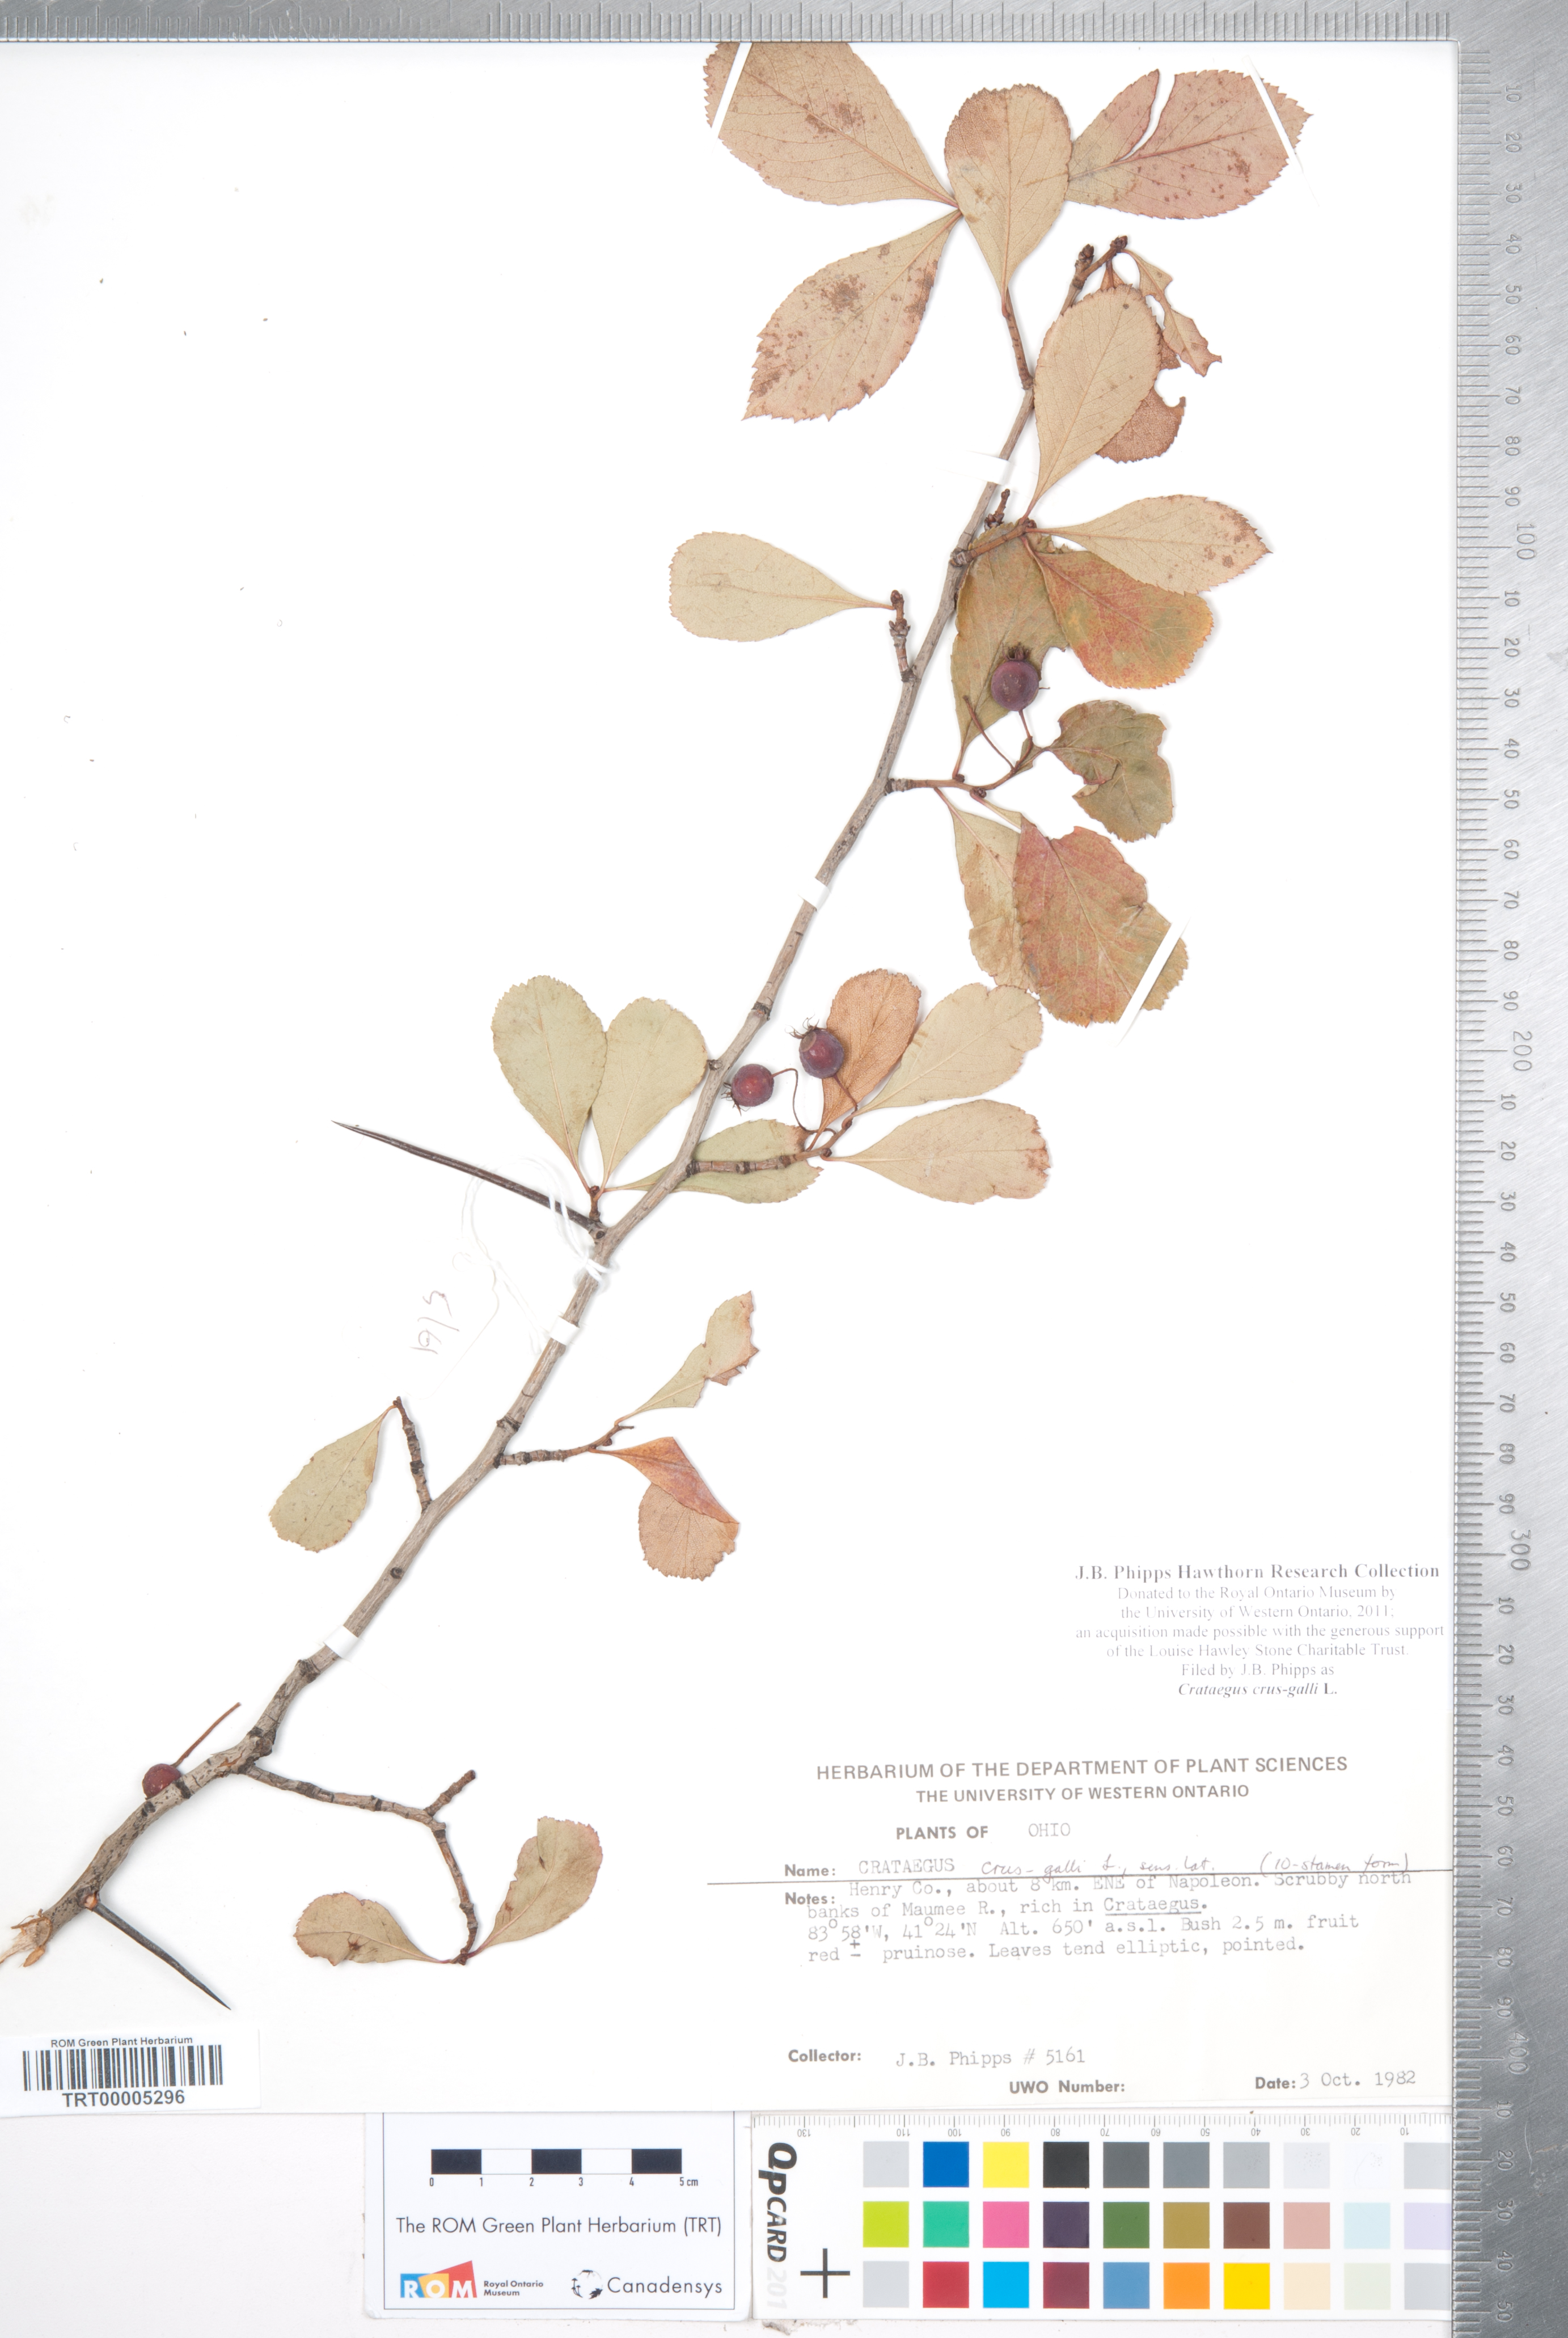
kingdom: Plantae
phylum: Tracheophyta
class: Magnoliopsida
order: Rosales
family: Rosaceae
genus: Crataegus
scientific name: Crataegus crus-galli
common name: Cockspurthorn
